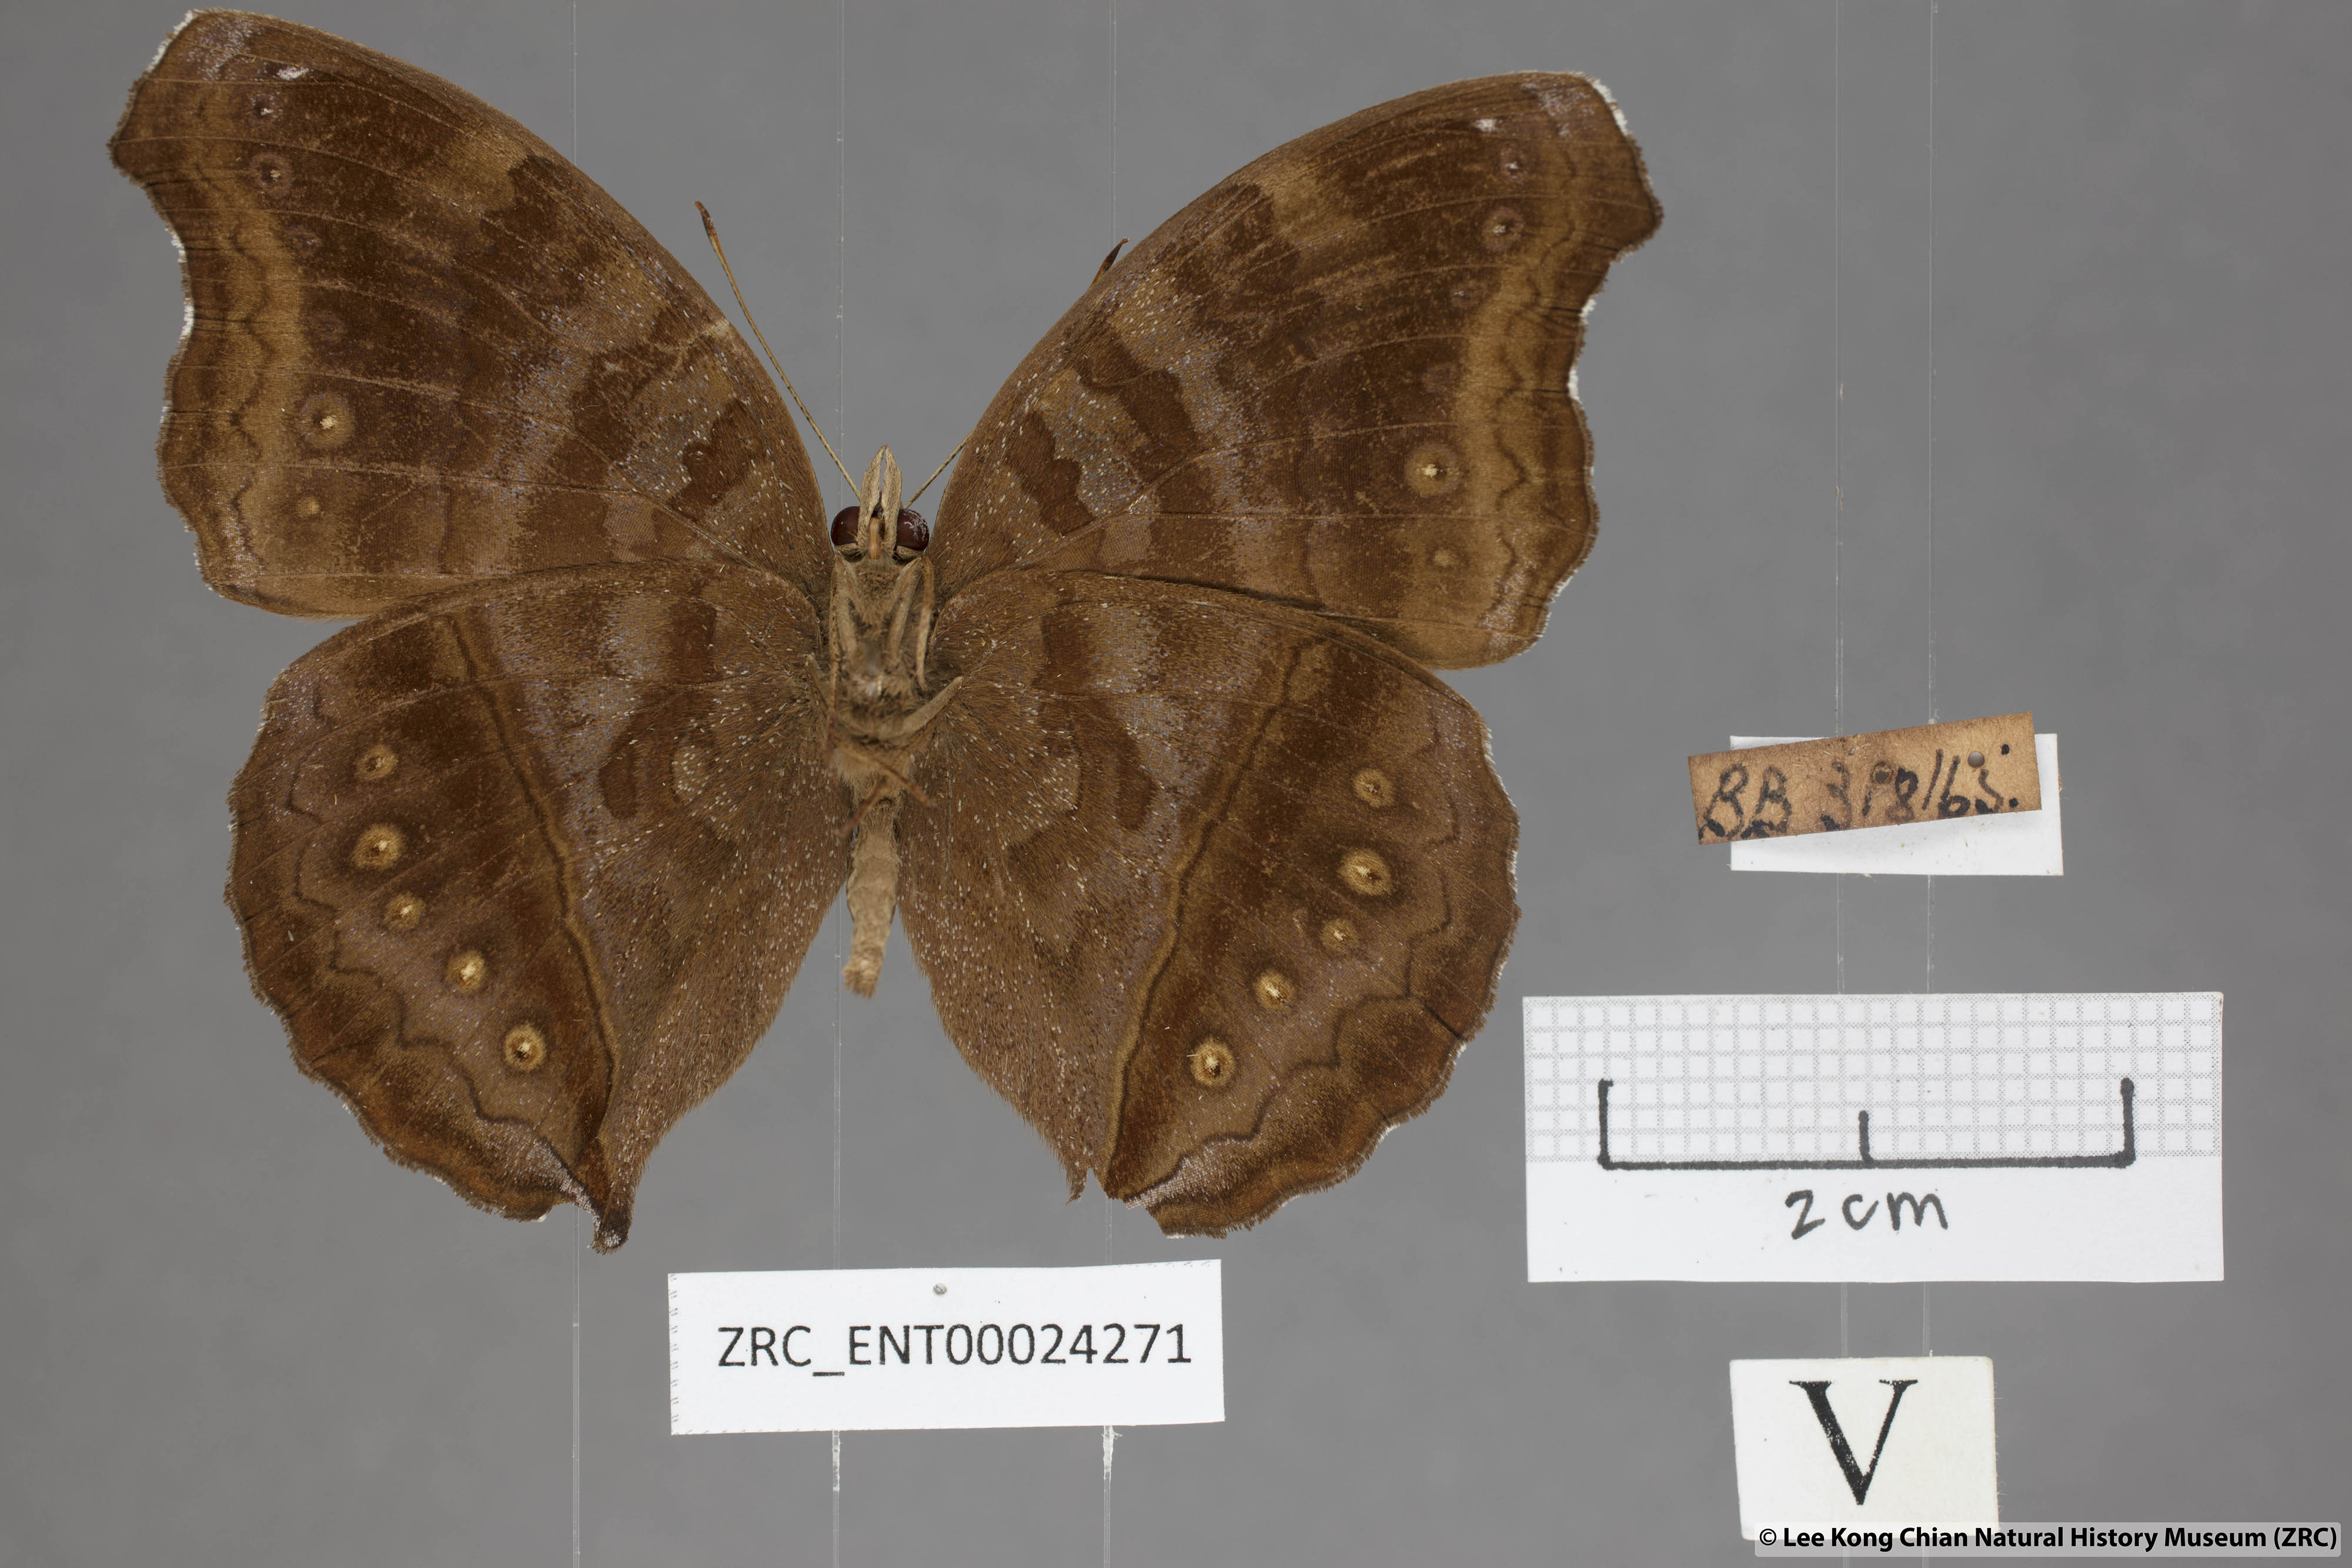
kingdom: Animalia
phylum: Arthropoda
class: Insecta
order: Lepidoptera
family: Nymphalidae
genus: Junonia
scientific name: Junonia iphita
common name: Chocolate pansy
